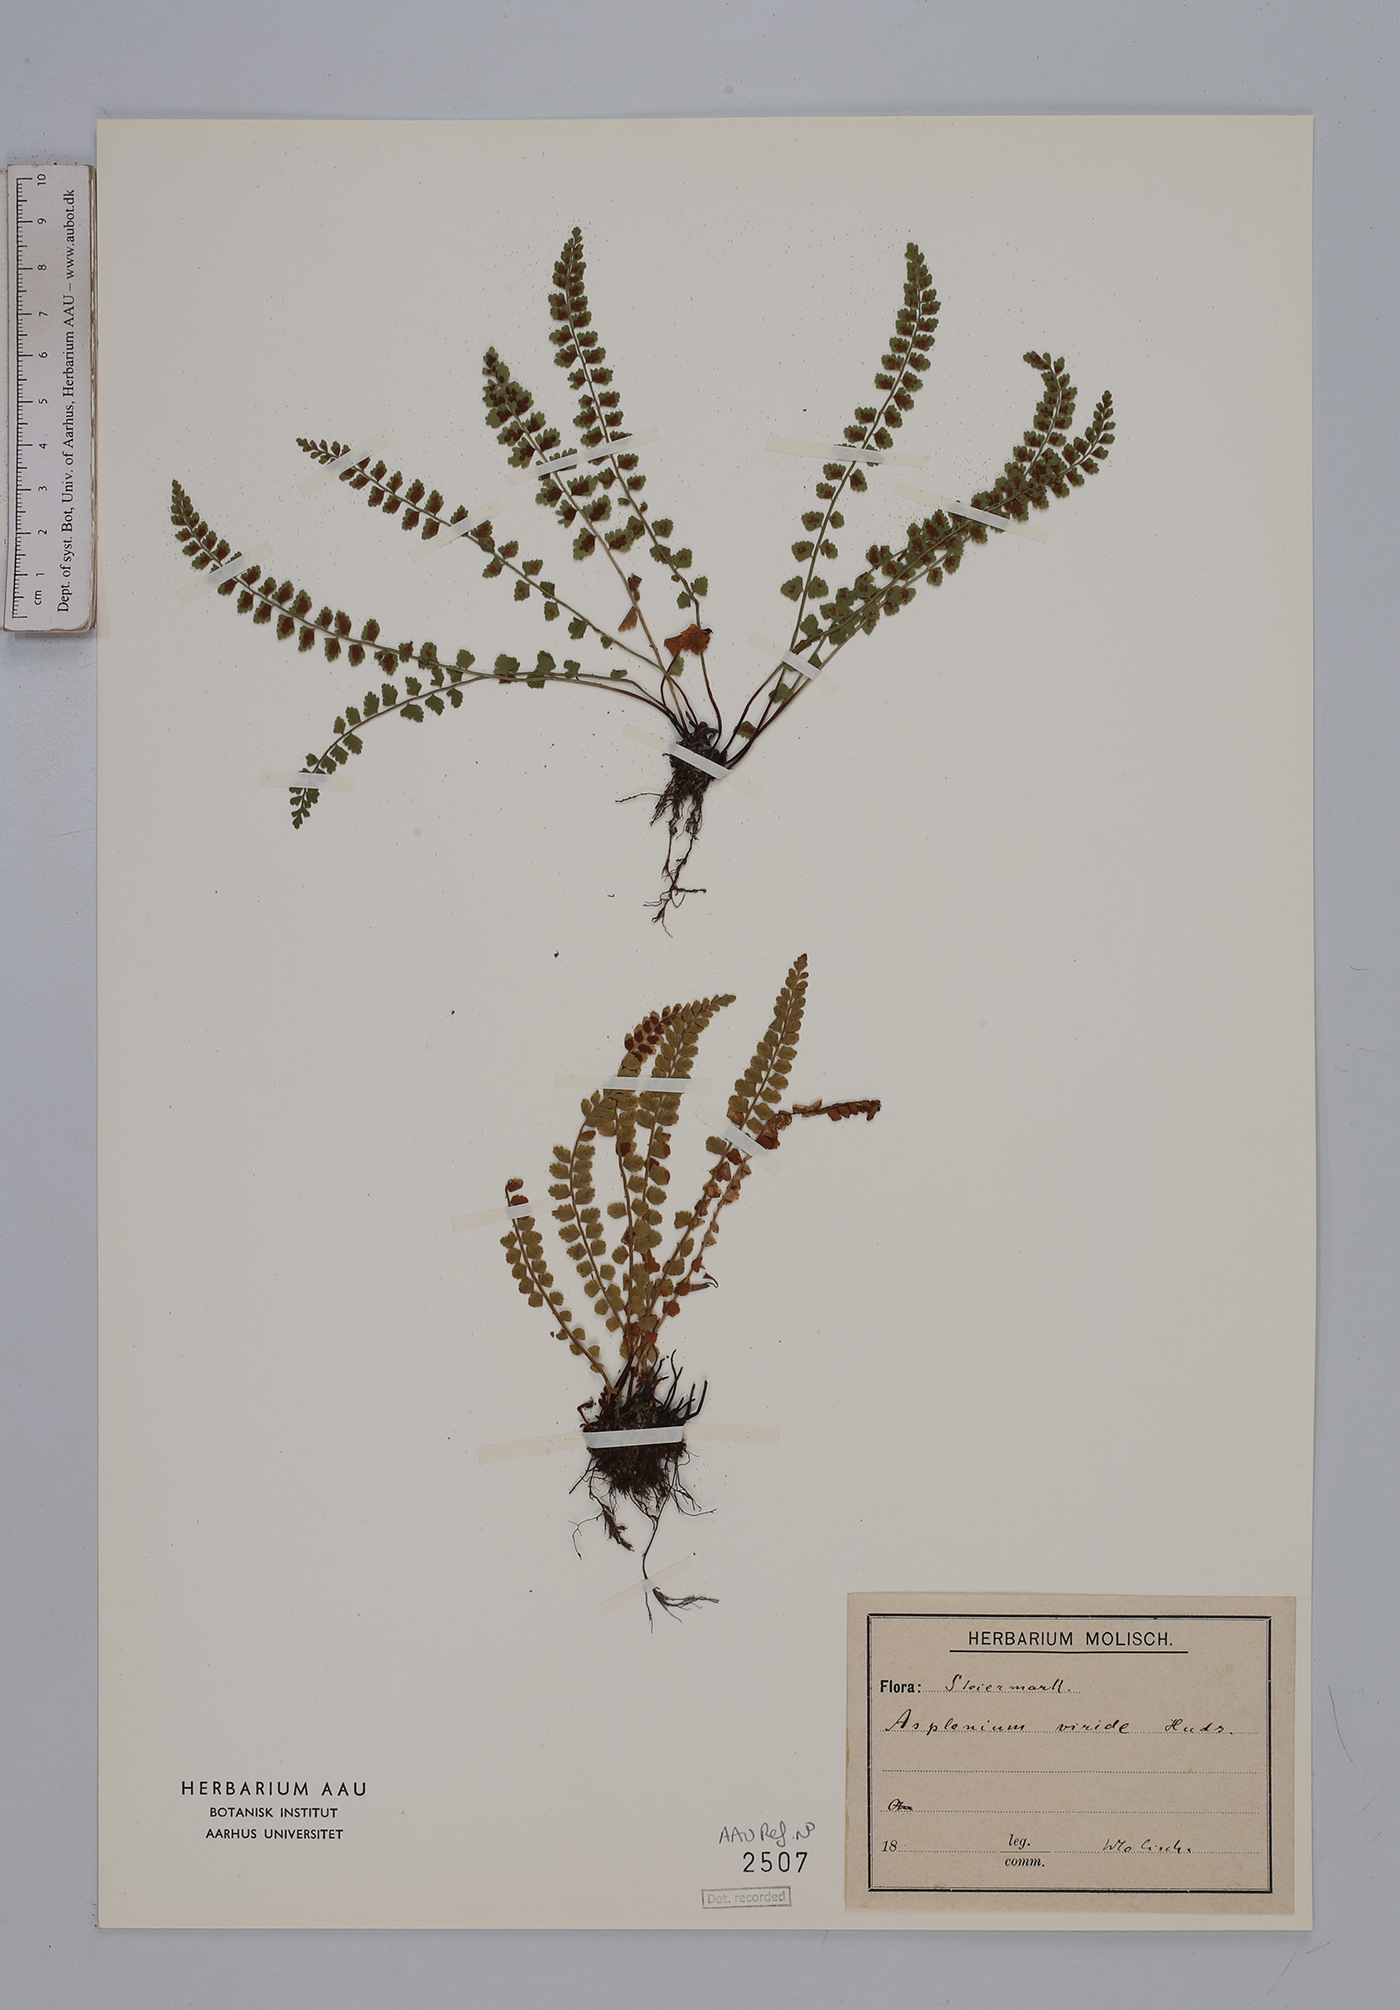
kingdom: Plantae
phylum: Tracheophyta
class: Polypodiopsida
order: Polypodiales
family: Aspleniaceae
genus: Asplenium
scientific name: Asplenium viride
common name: Green spleenwort
